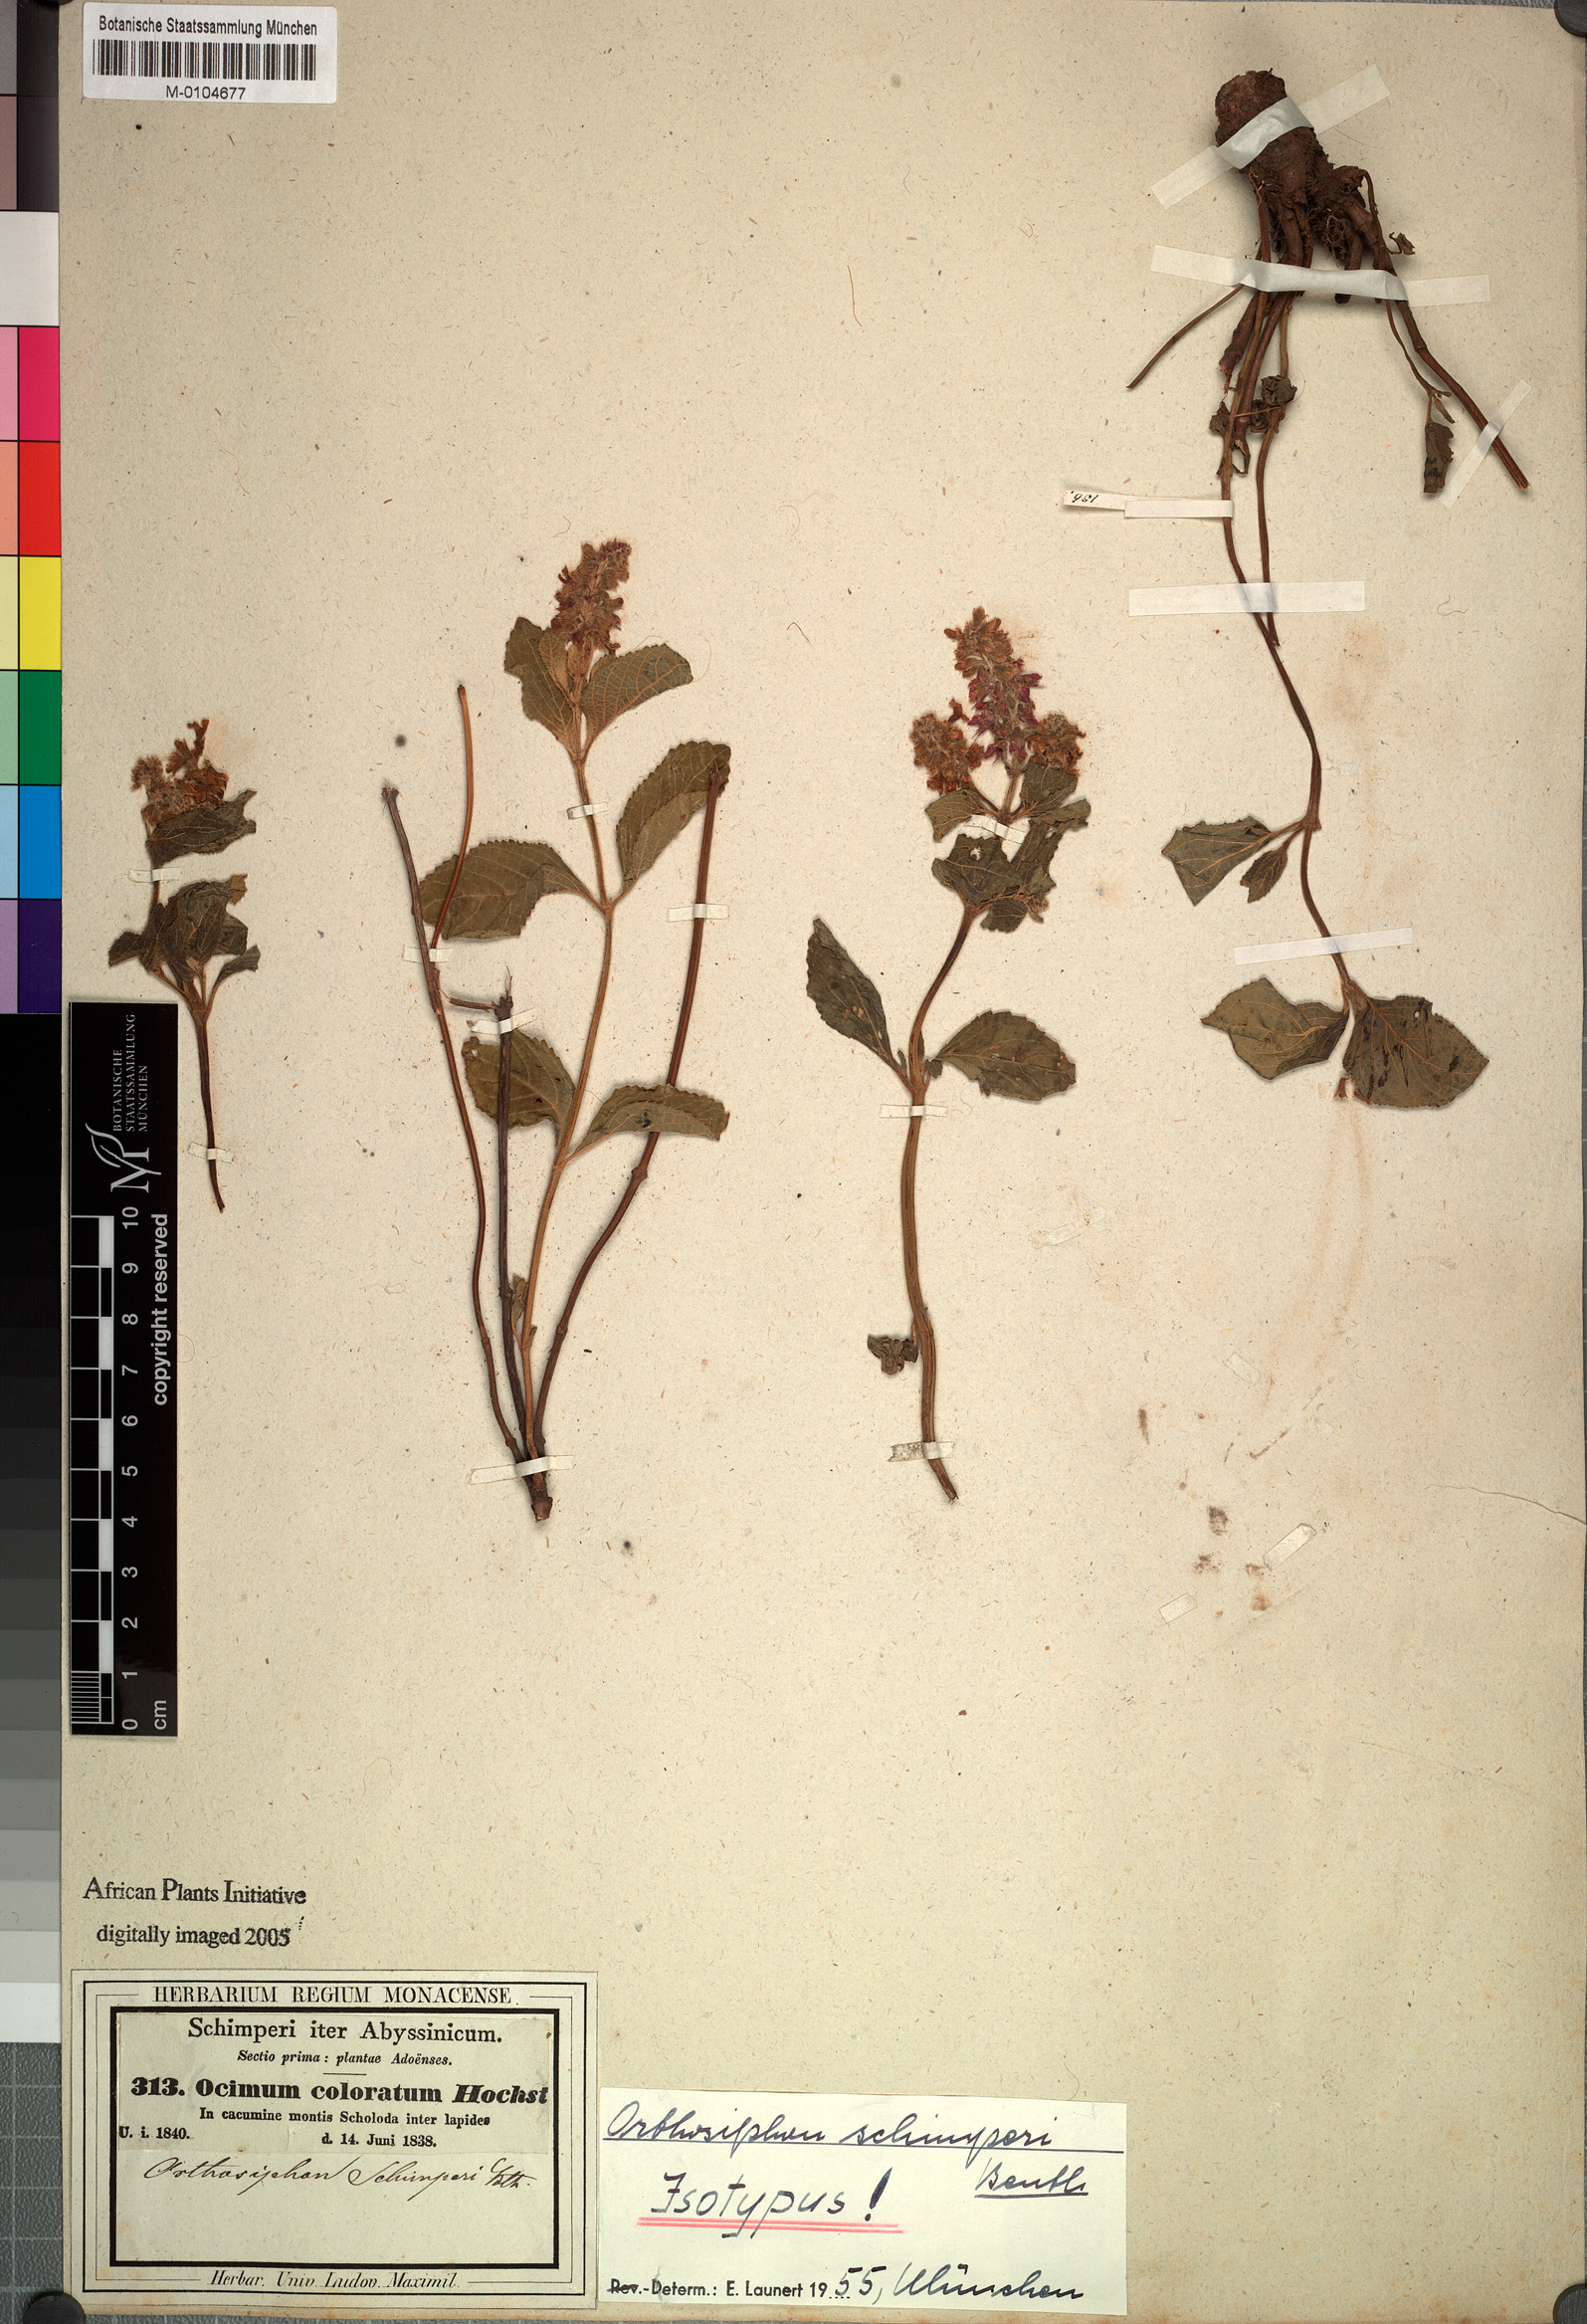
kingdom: Plantae
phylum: Tracheophyta
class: Magnoliopsida
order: Lamiales
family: Lamiaceae
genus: Orthosiphon
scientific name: Orthosiphon schimperi
